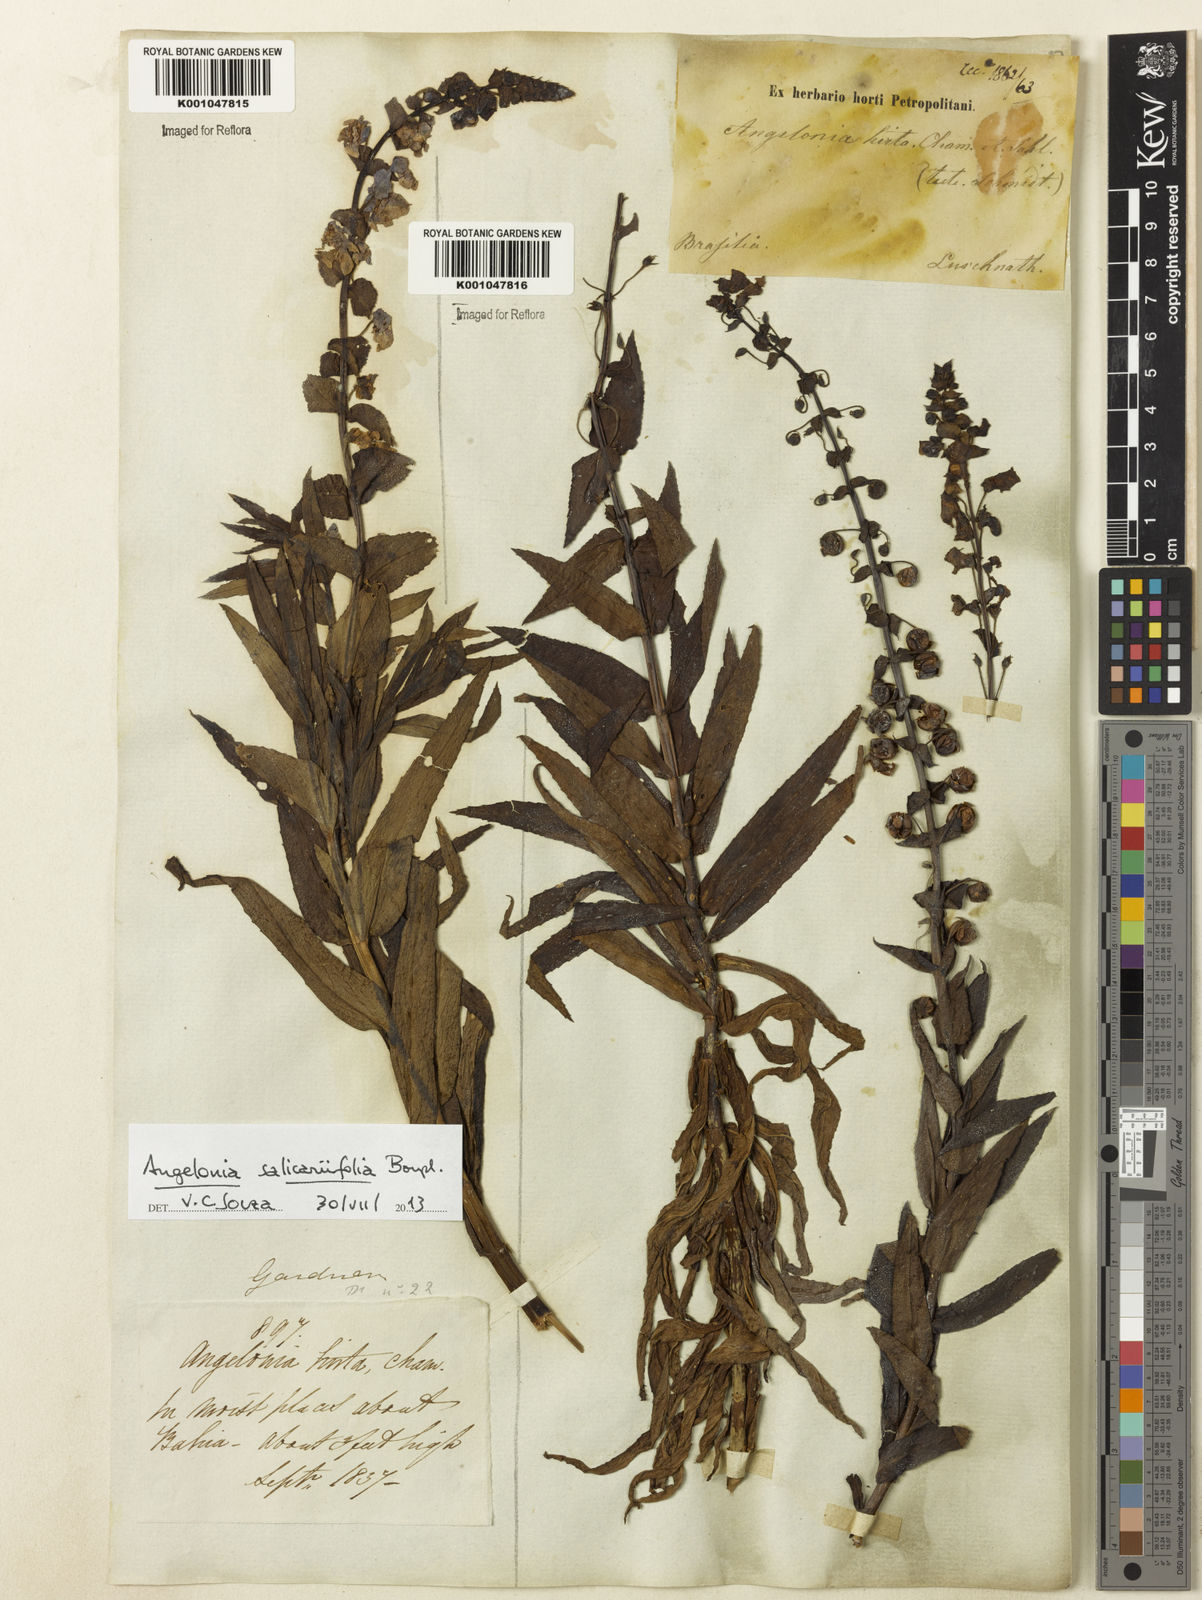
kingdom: Plantae
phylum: Tracheophyta
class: Magnoliopsida
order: Lamiales
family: Plantaginaceae
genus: Angelonia
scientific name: Angelonia salicariifolia
